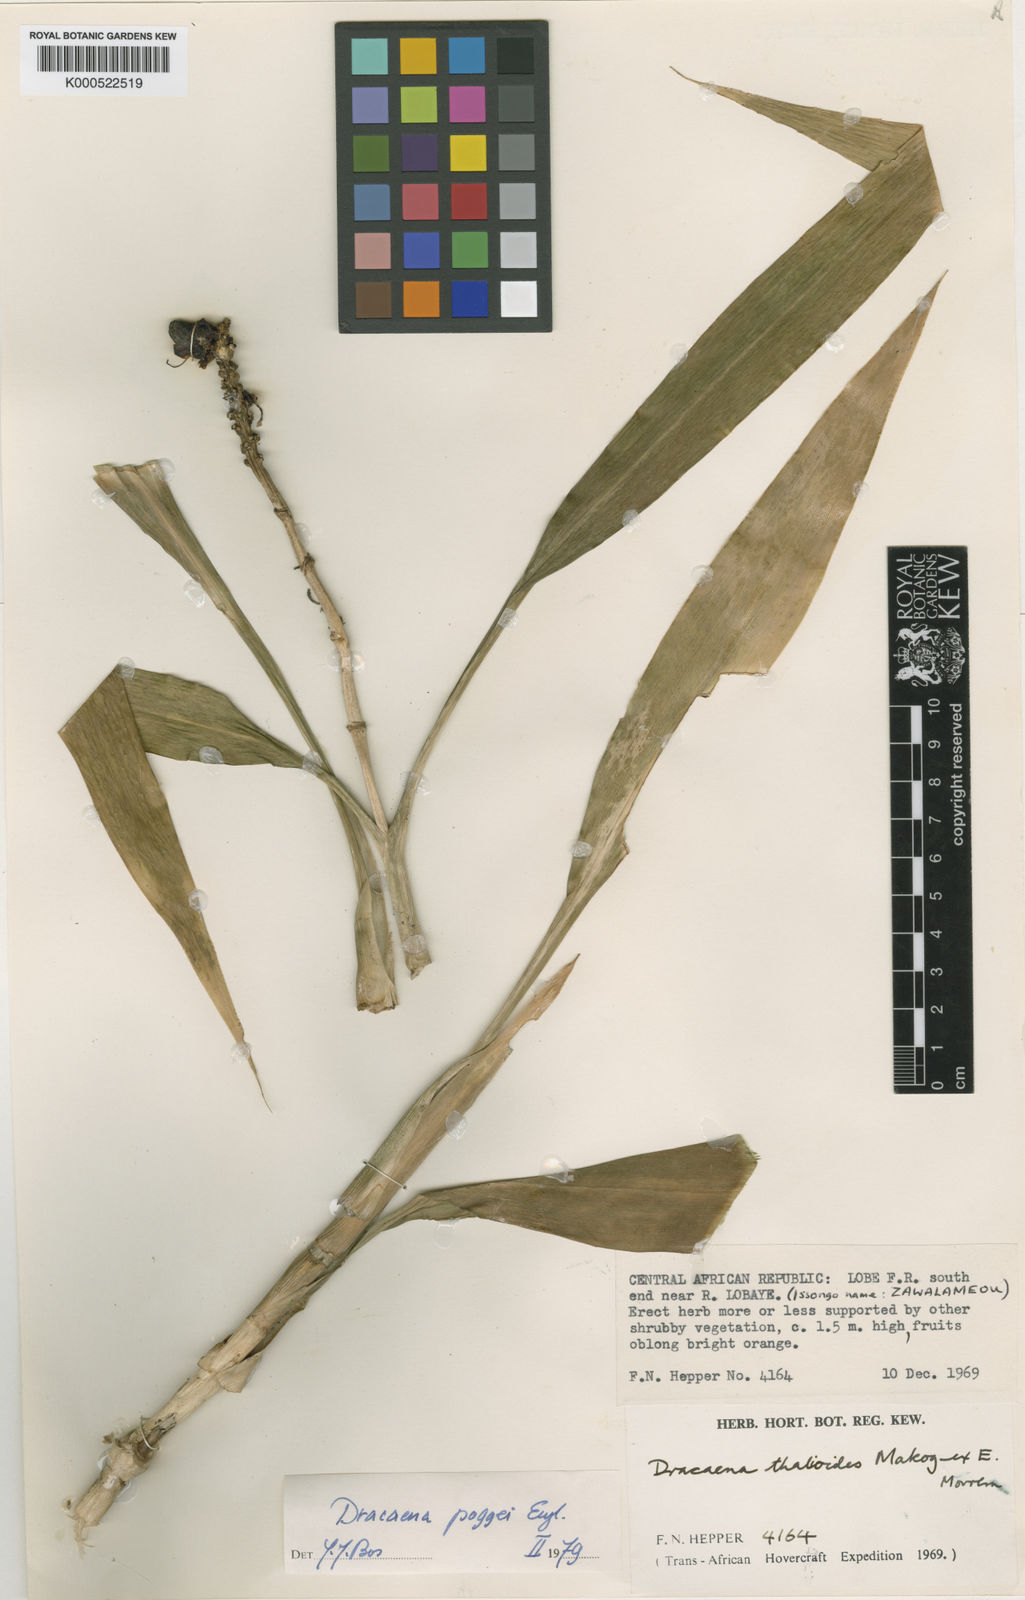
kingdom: Plantae
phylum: Tracheophyta
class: Liliopsida
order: Asparagales
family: Asparagaceae
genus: Dracaena
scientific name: Dracaena sanderiana
